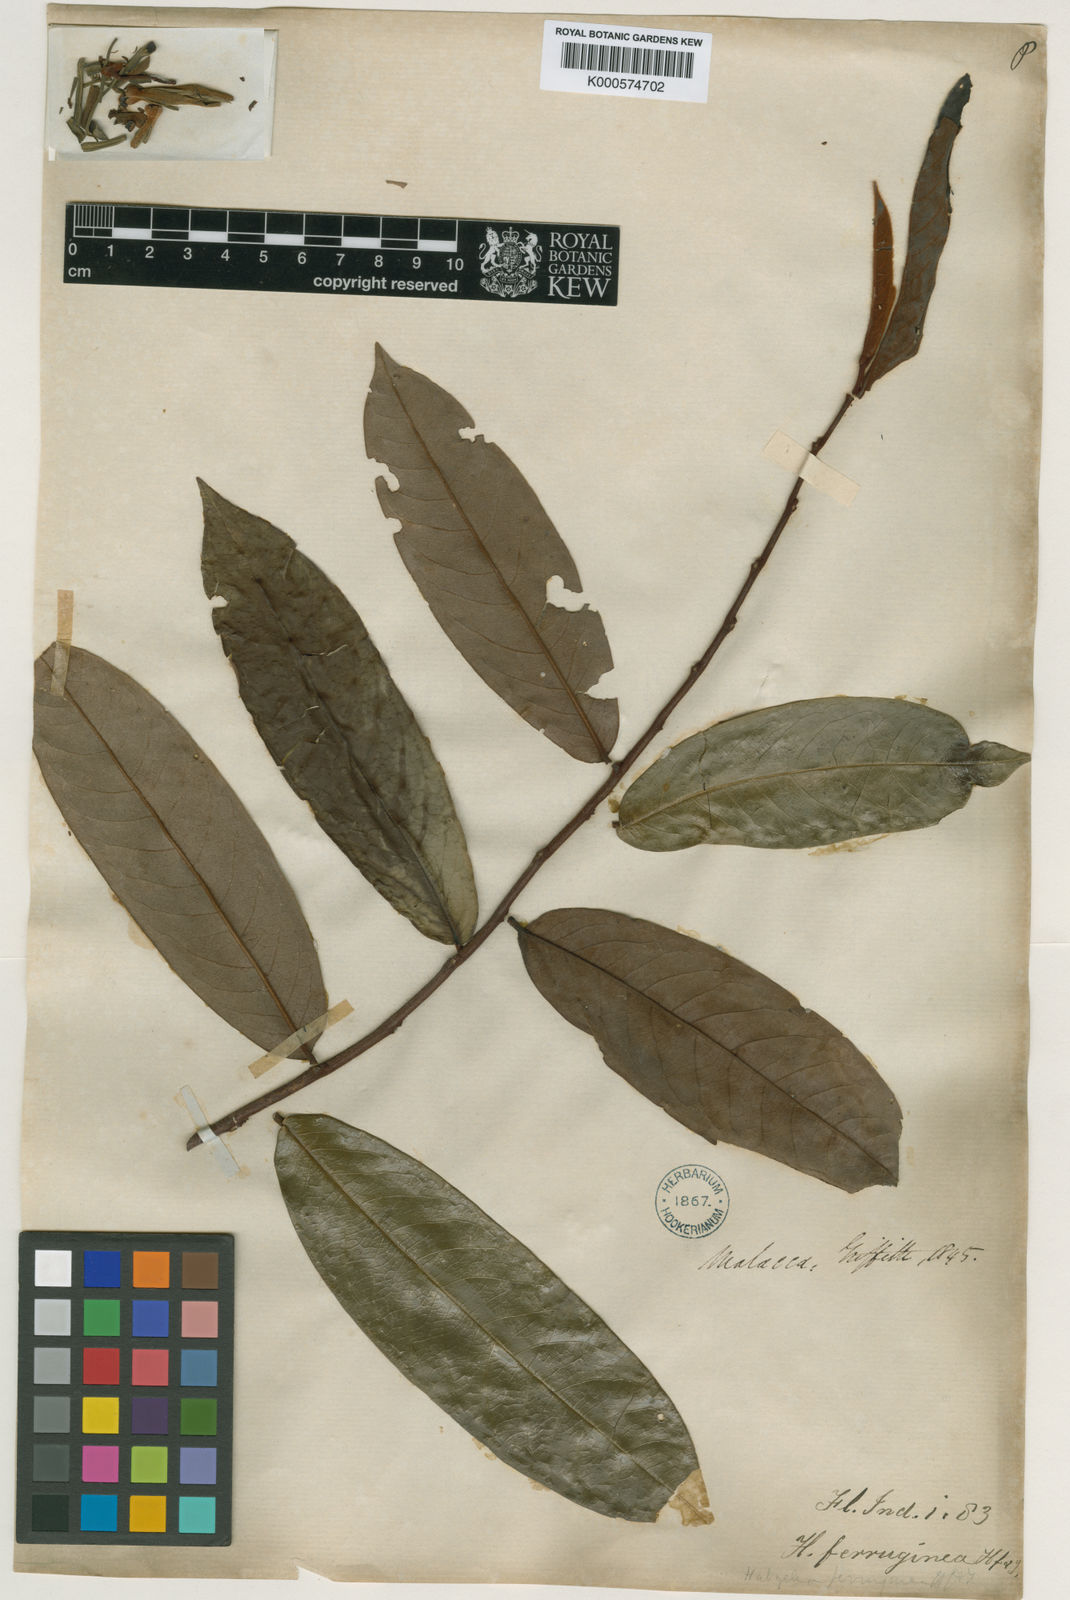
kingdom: Plantae
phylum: Tracheophyta
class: Magnoliopsida
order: Magnoliales
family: Annonaceae
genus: Xylopia
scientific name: Xylopia ferruginea
